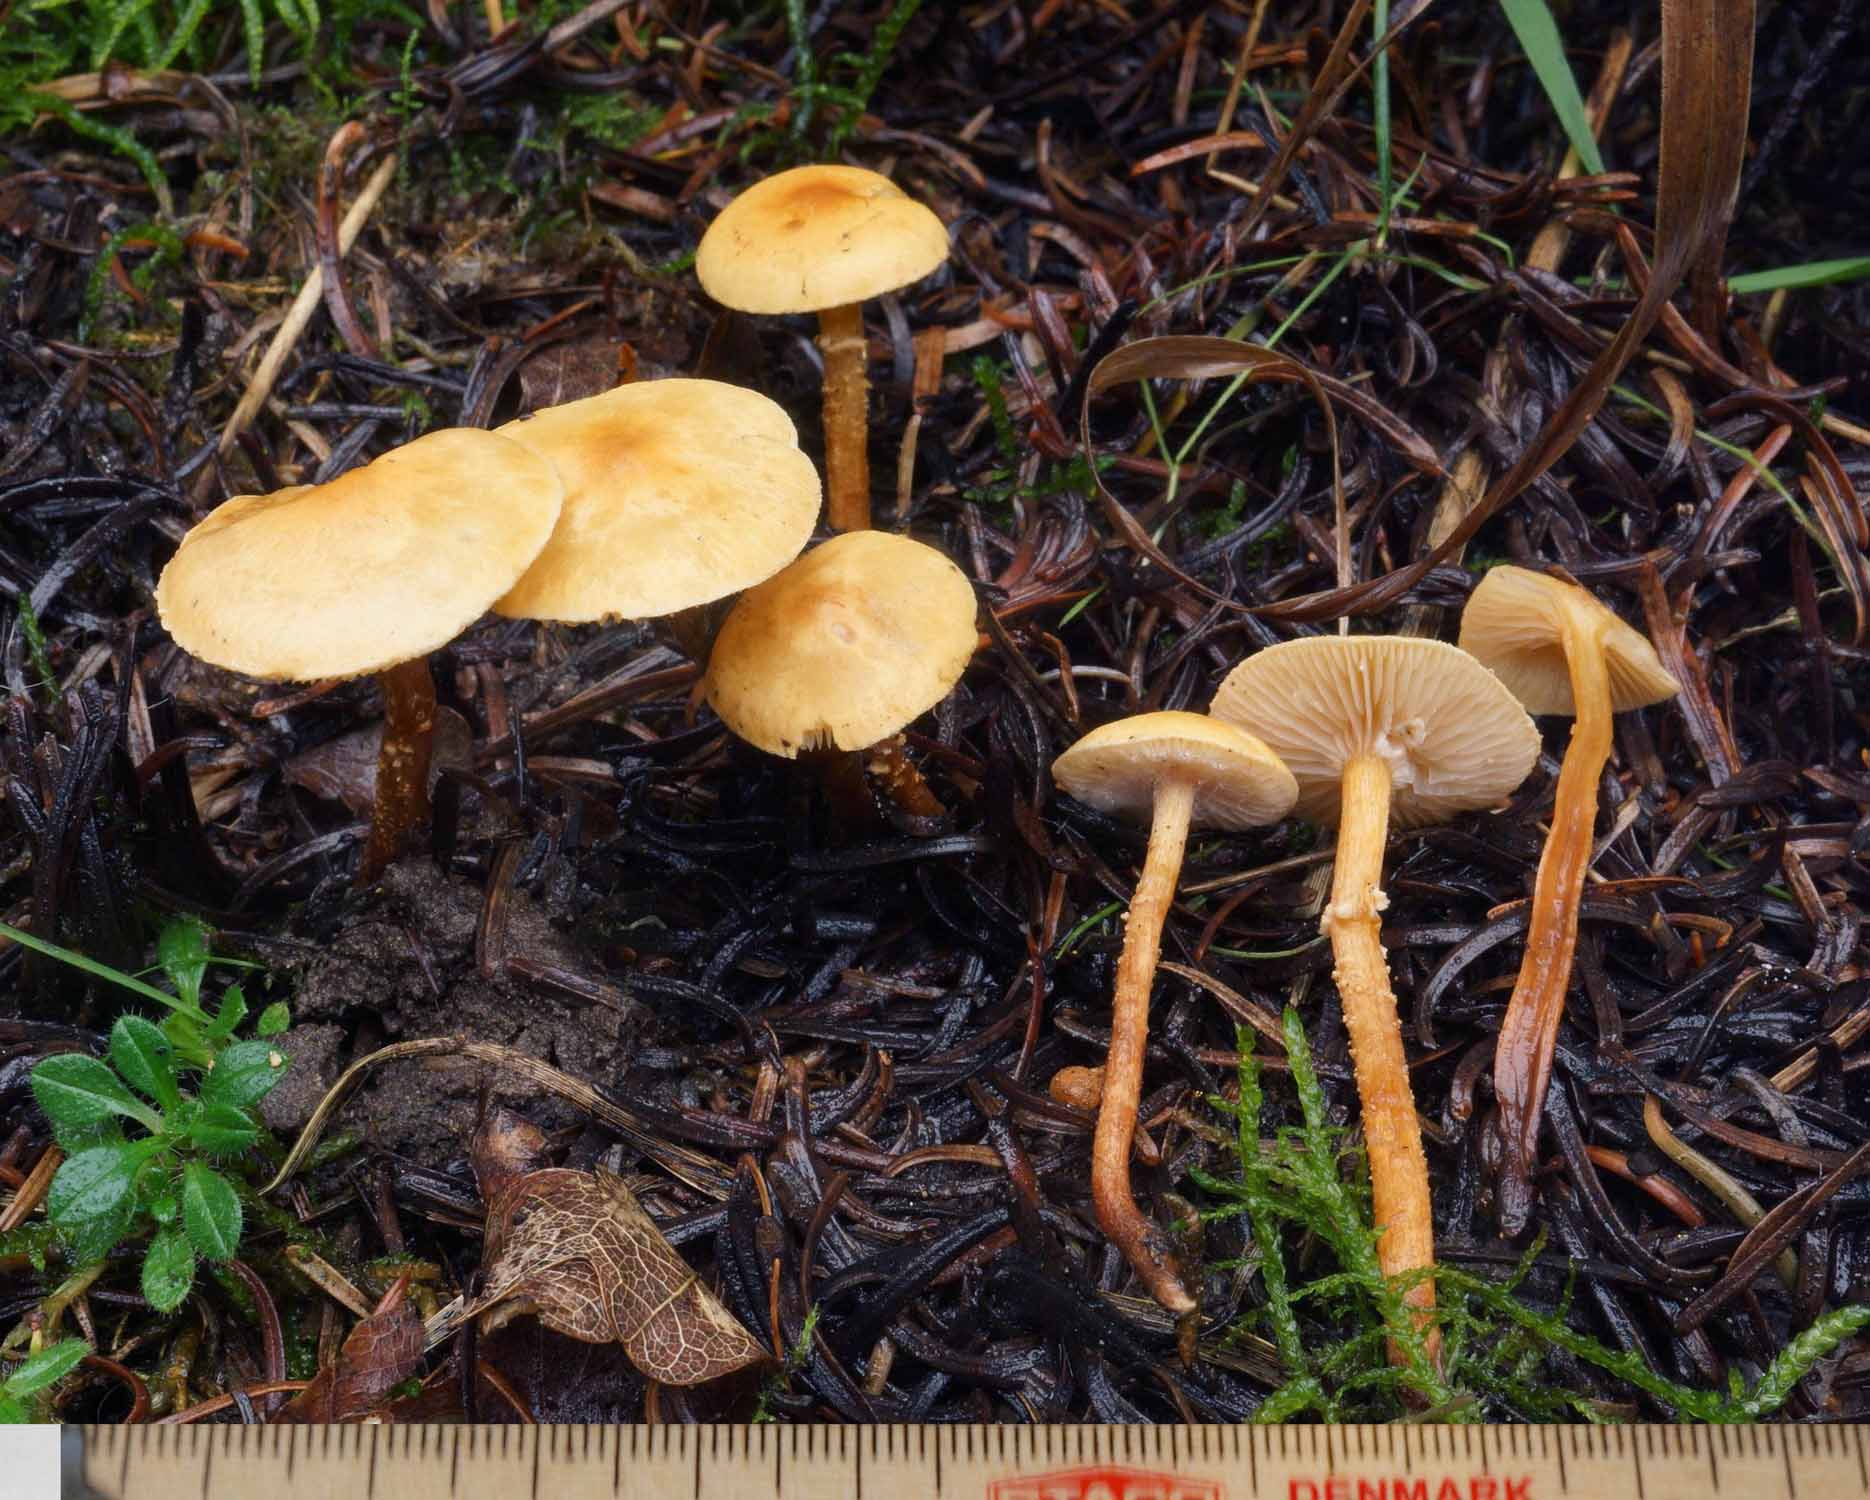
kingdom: Fungi
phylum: Basidiomycota
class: Agaricomycetes
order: Agaricales
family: Tricholomataceae
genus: Cystoderma
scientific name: Cystoderma jasonis
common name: gulkødet grynhat
